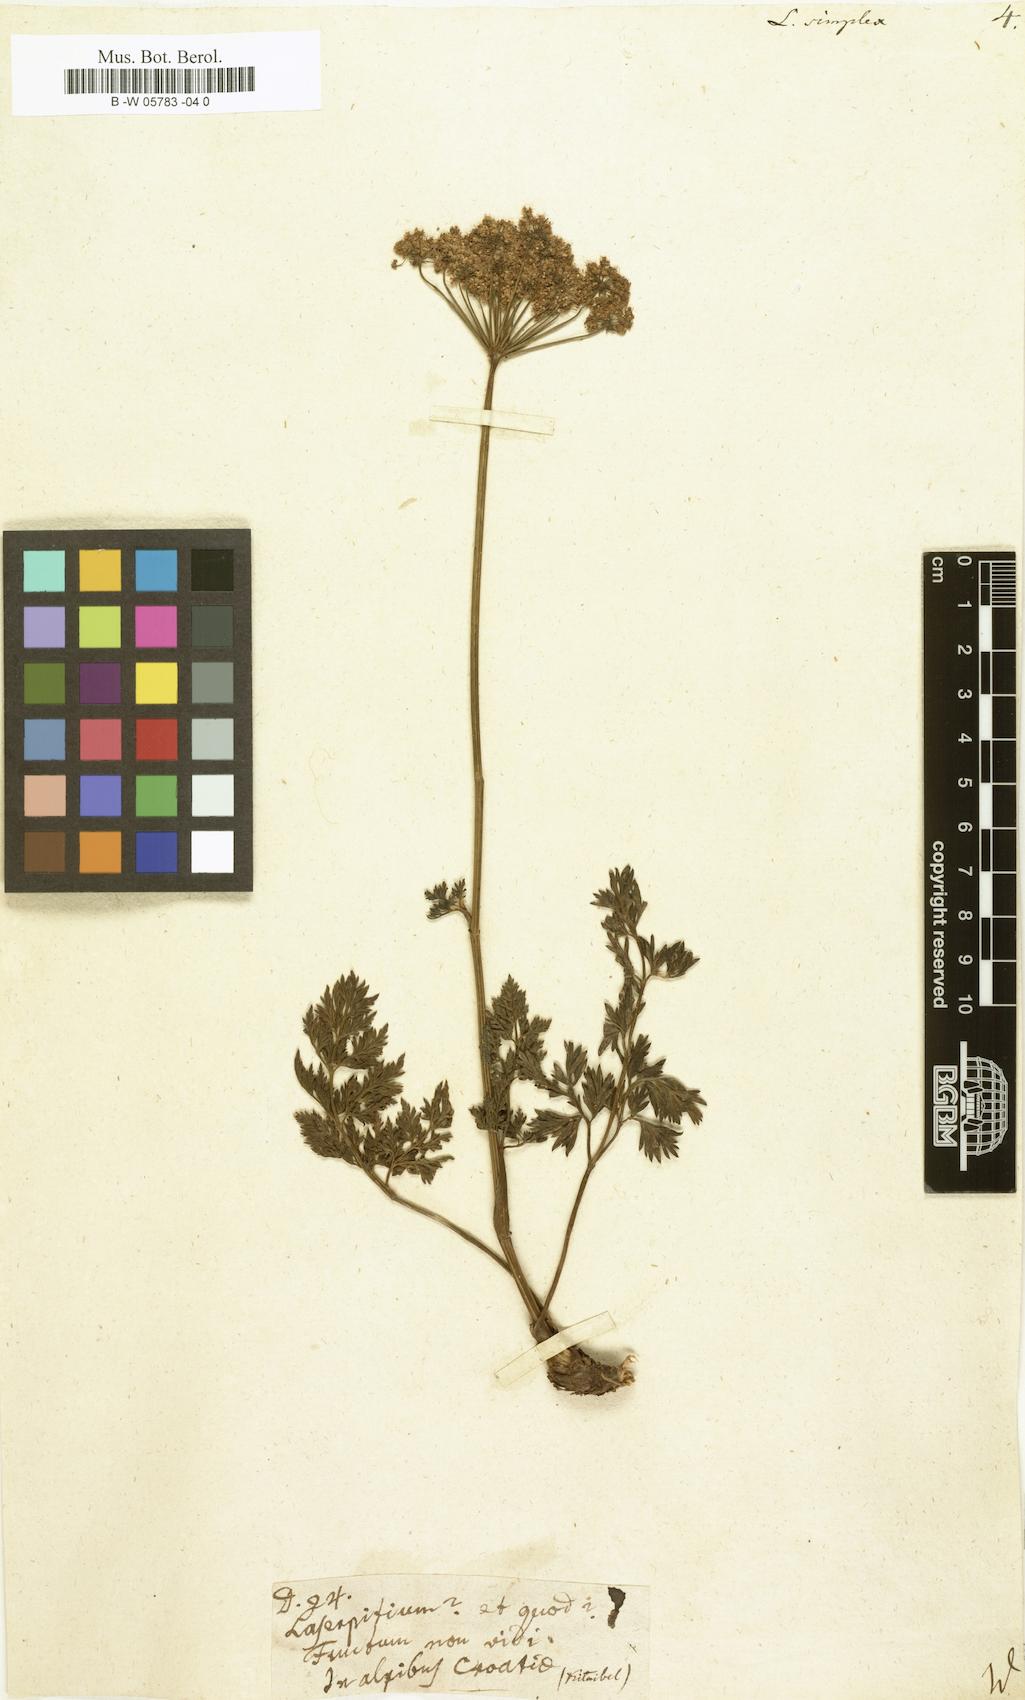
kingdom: Plantae
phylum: Tracheophyta
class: Magnoliopsida
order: Apiales
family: Apiaceae
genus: Pachypleurum
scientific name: Pachypleurum mutellinoides
